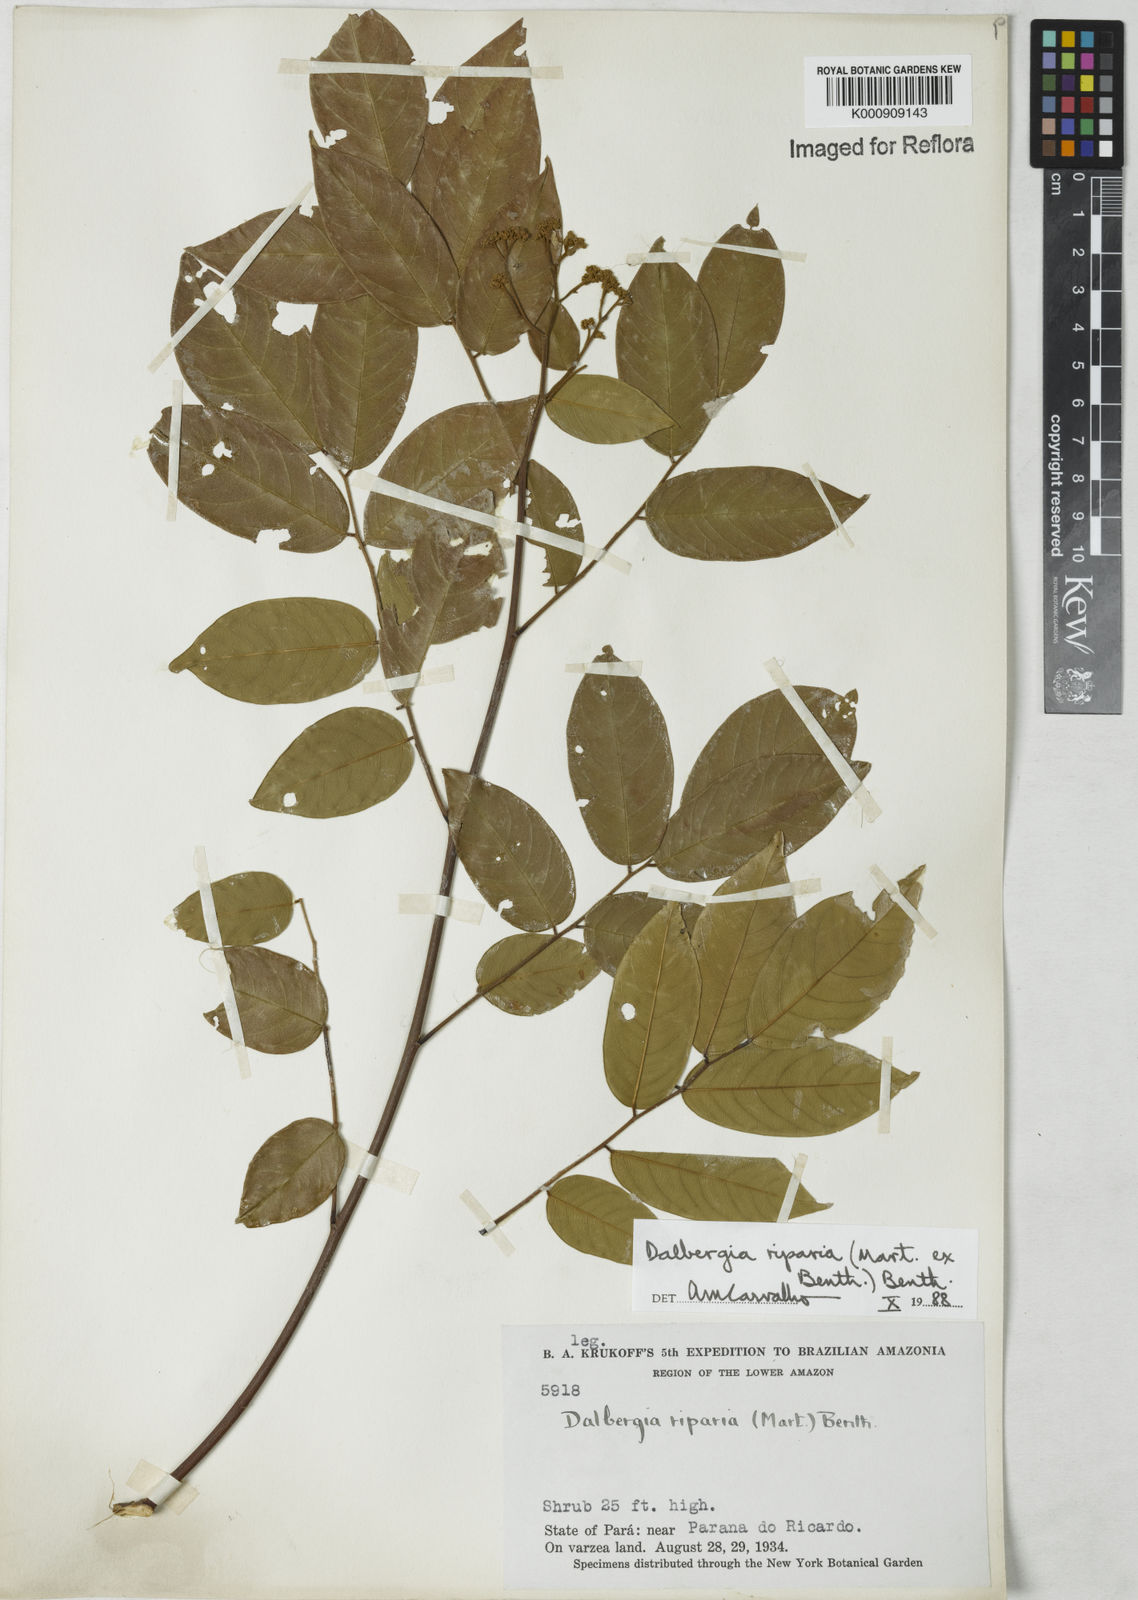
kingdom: Plantae
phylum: Tracheophyta
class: Magnoliopsida
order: Fabales
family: Fabaceae
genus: Dalbergia
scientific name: Dalbergia riparia
